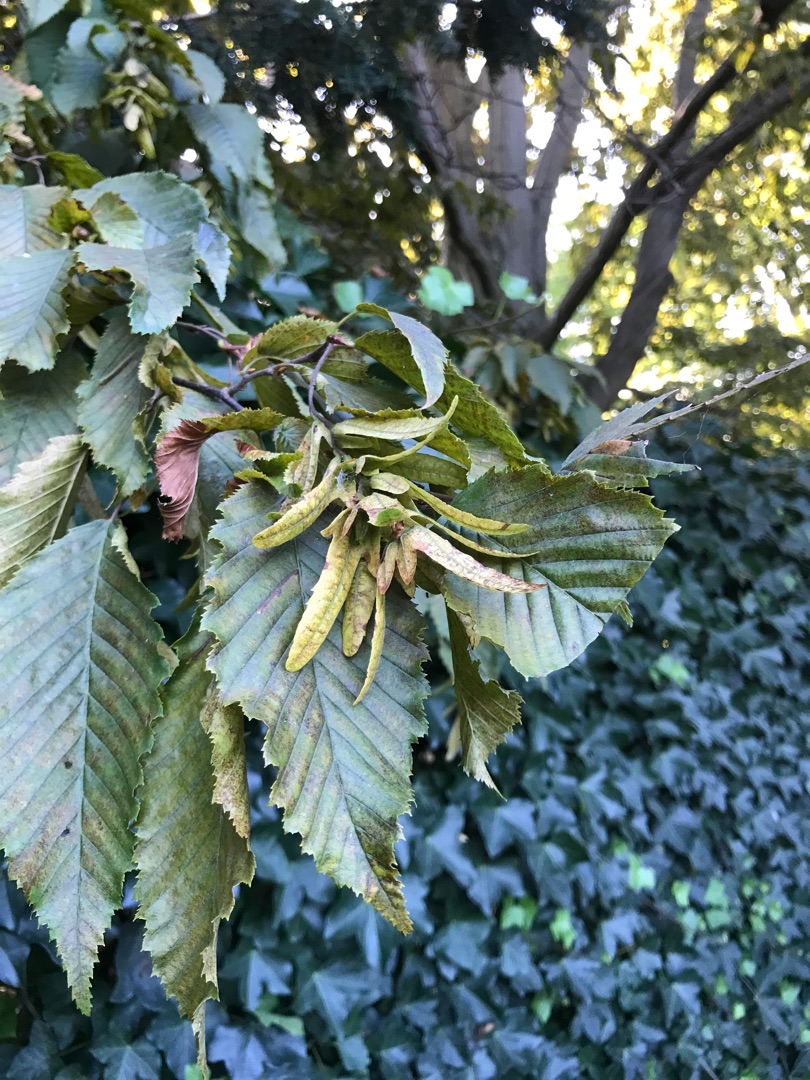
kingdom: Plantae
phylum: Tracheophyta
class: Magnoliopsida
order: Fagales
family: Betulaceae
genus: Carpinus
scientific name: Carpinus betulus
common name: Avnbøg
